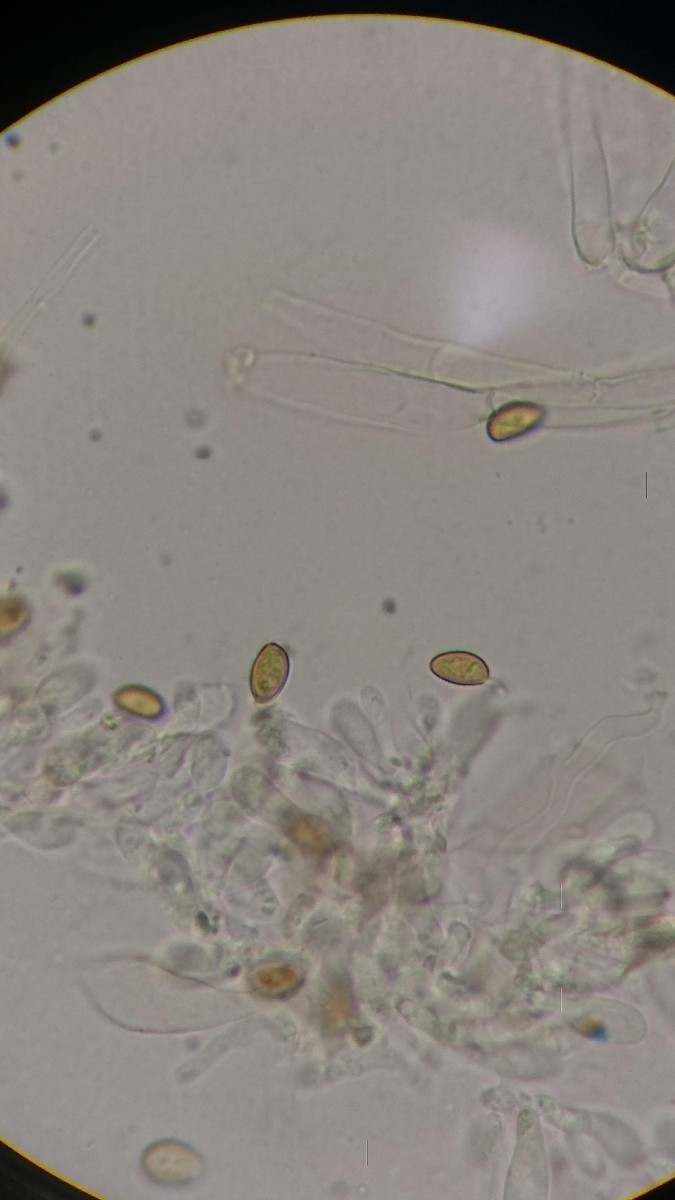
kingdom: Fungi
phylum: Basidiomycota
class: Agaricomycetes
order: Agaricales
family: Strophariaceae
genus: Hypholoma
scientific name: Hypholoma elongatum
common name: slank svovlhat
